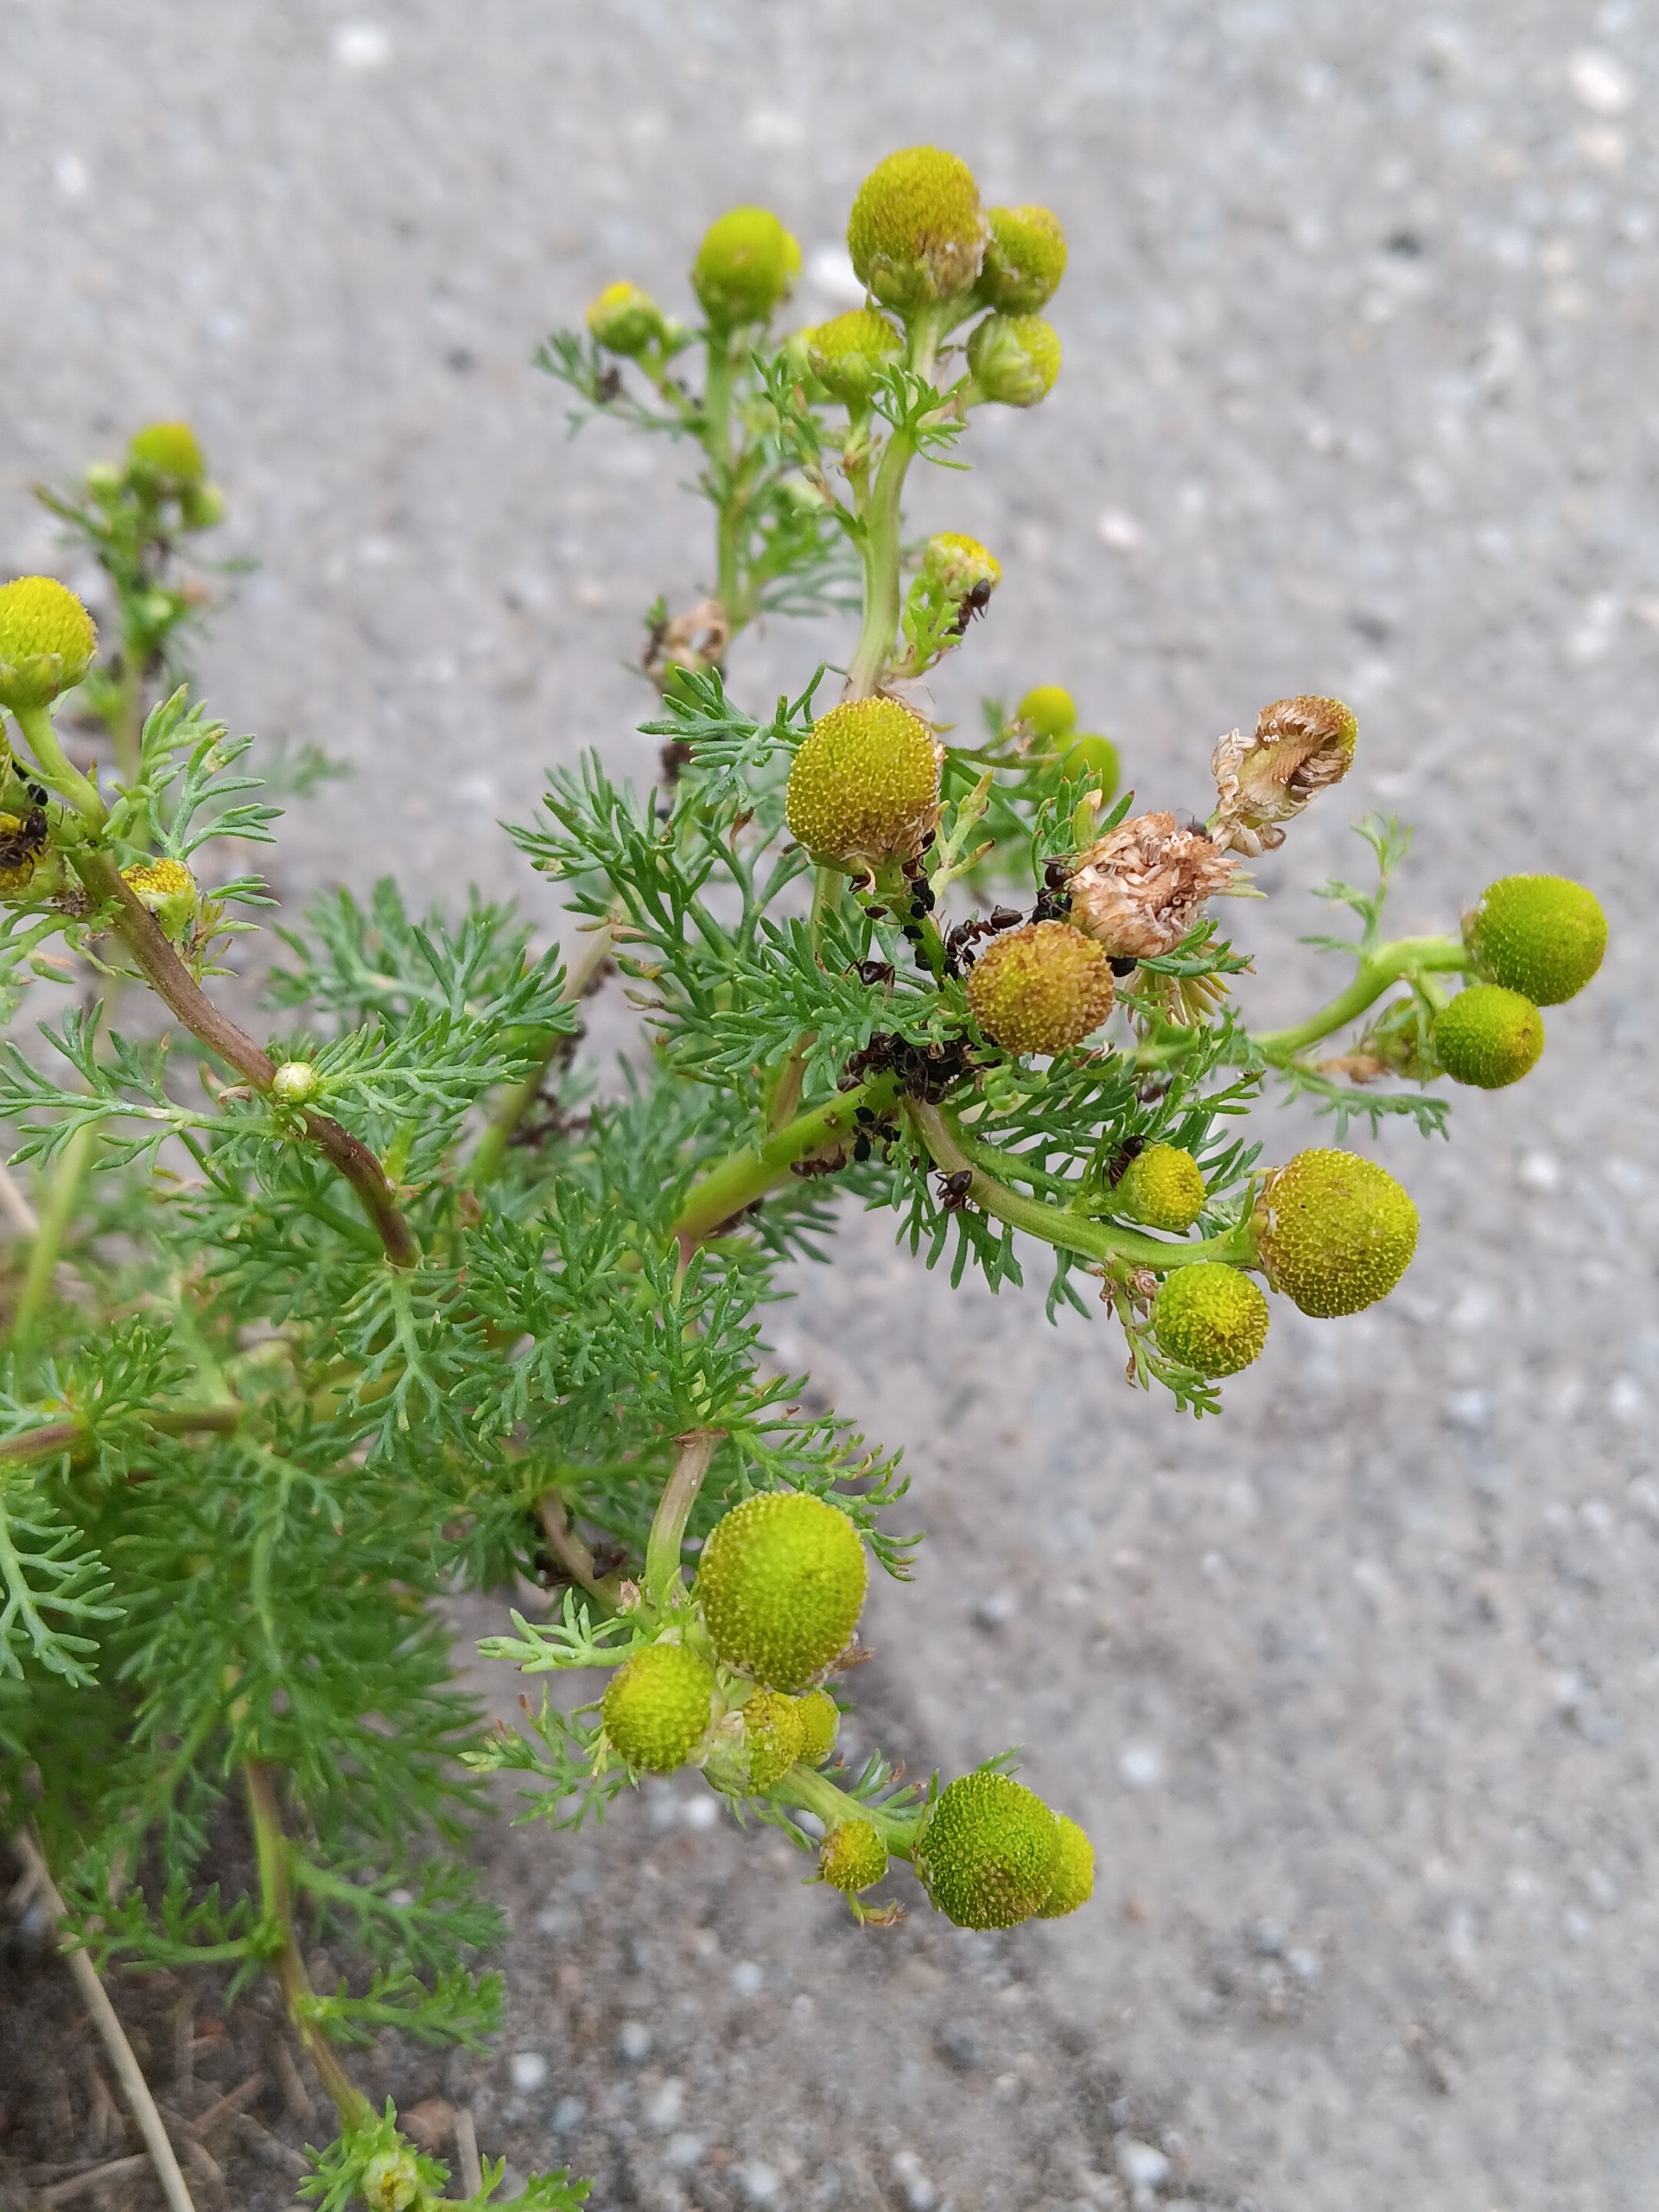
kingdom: Plantae
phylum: Tracheophyta
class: Magnoliopsida
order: Asterales
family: Asteraceae
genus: Matricaria
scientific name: Matricaria discoidea
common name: Skive-kamille
